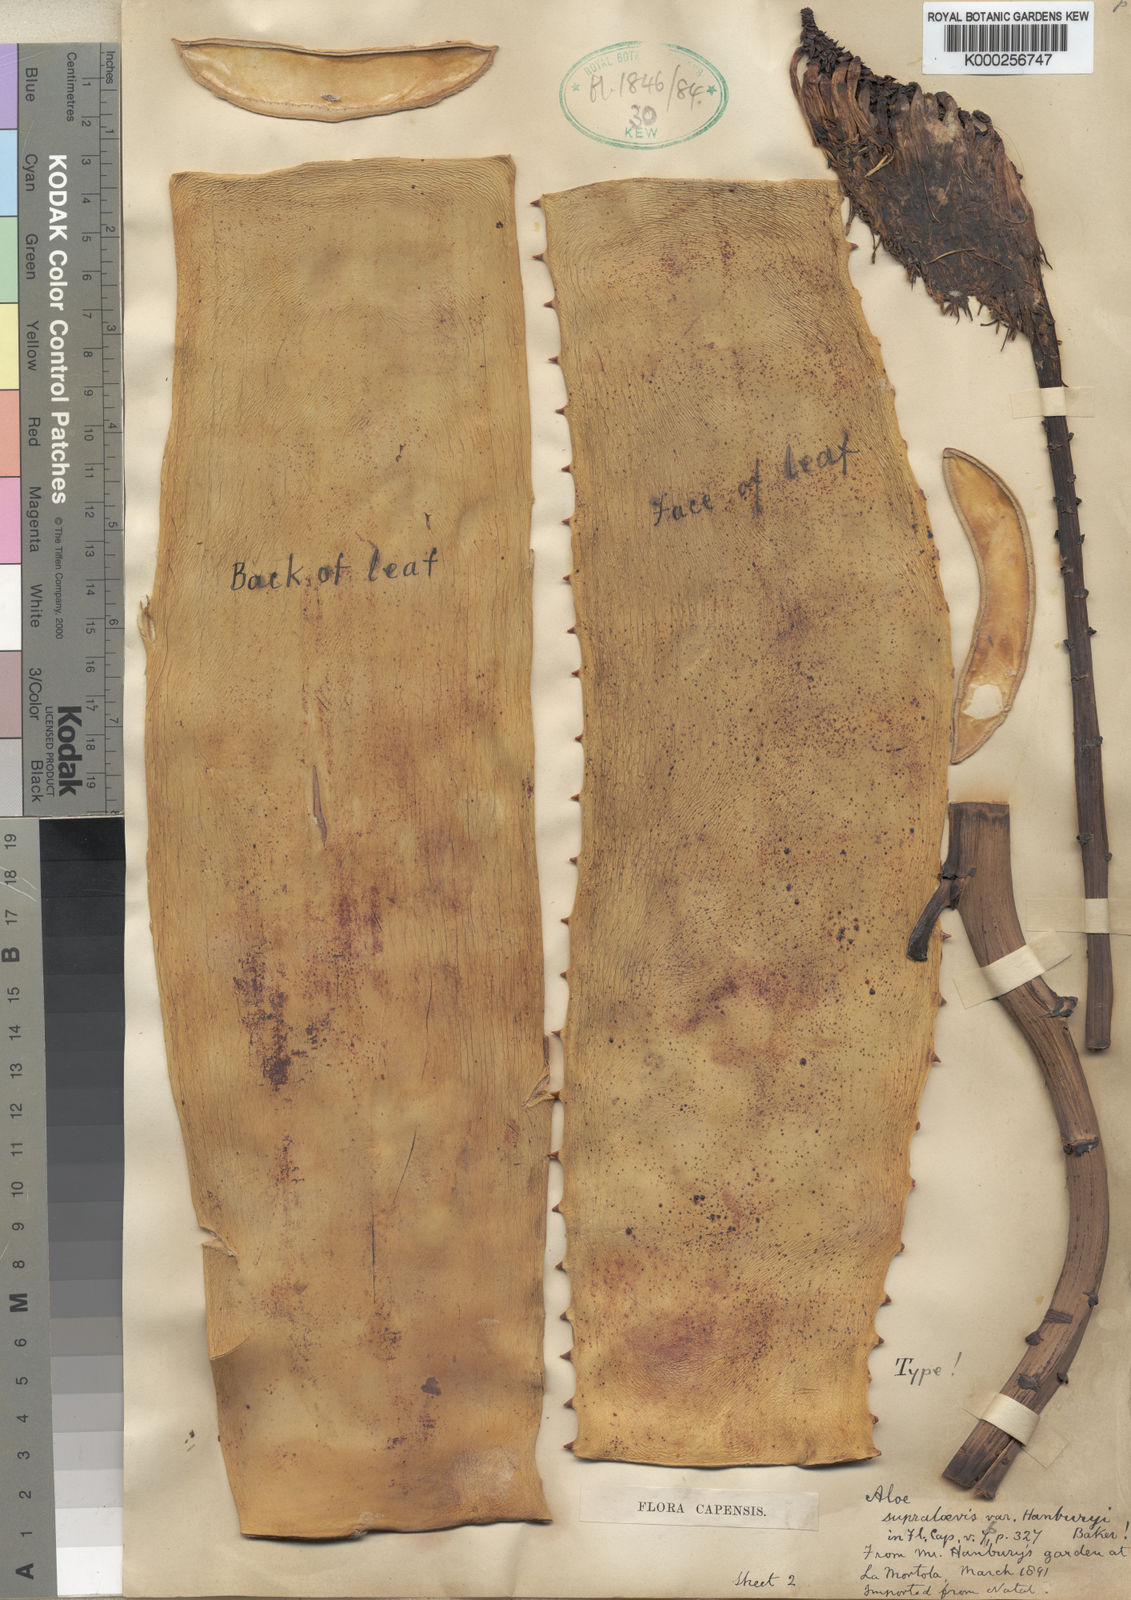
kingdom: Plantae
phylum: Tracheophyta
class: Liliopsida
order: Asparagales
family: Asphodelaceae
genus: Aloe
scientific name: Aloe marlothii
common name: Flat-flowered aloe
